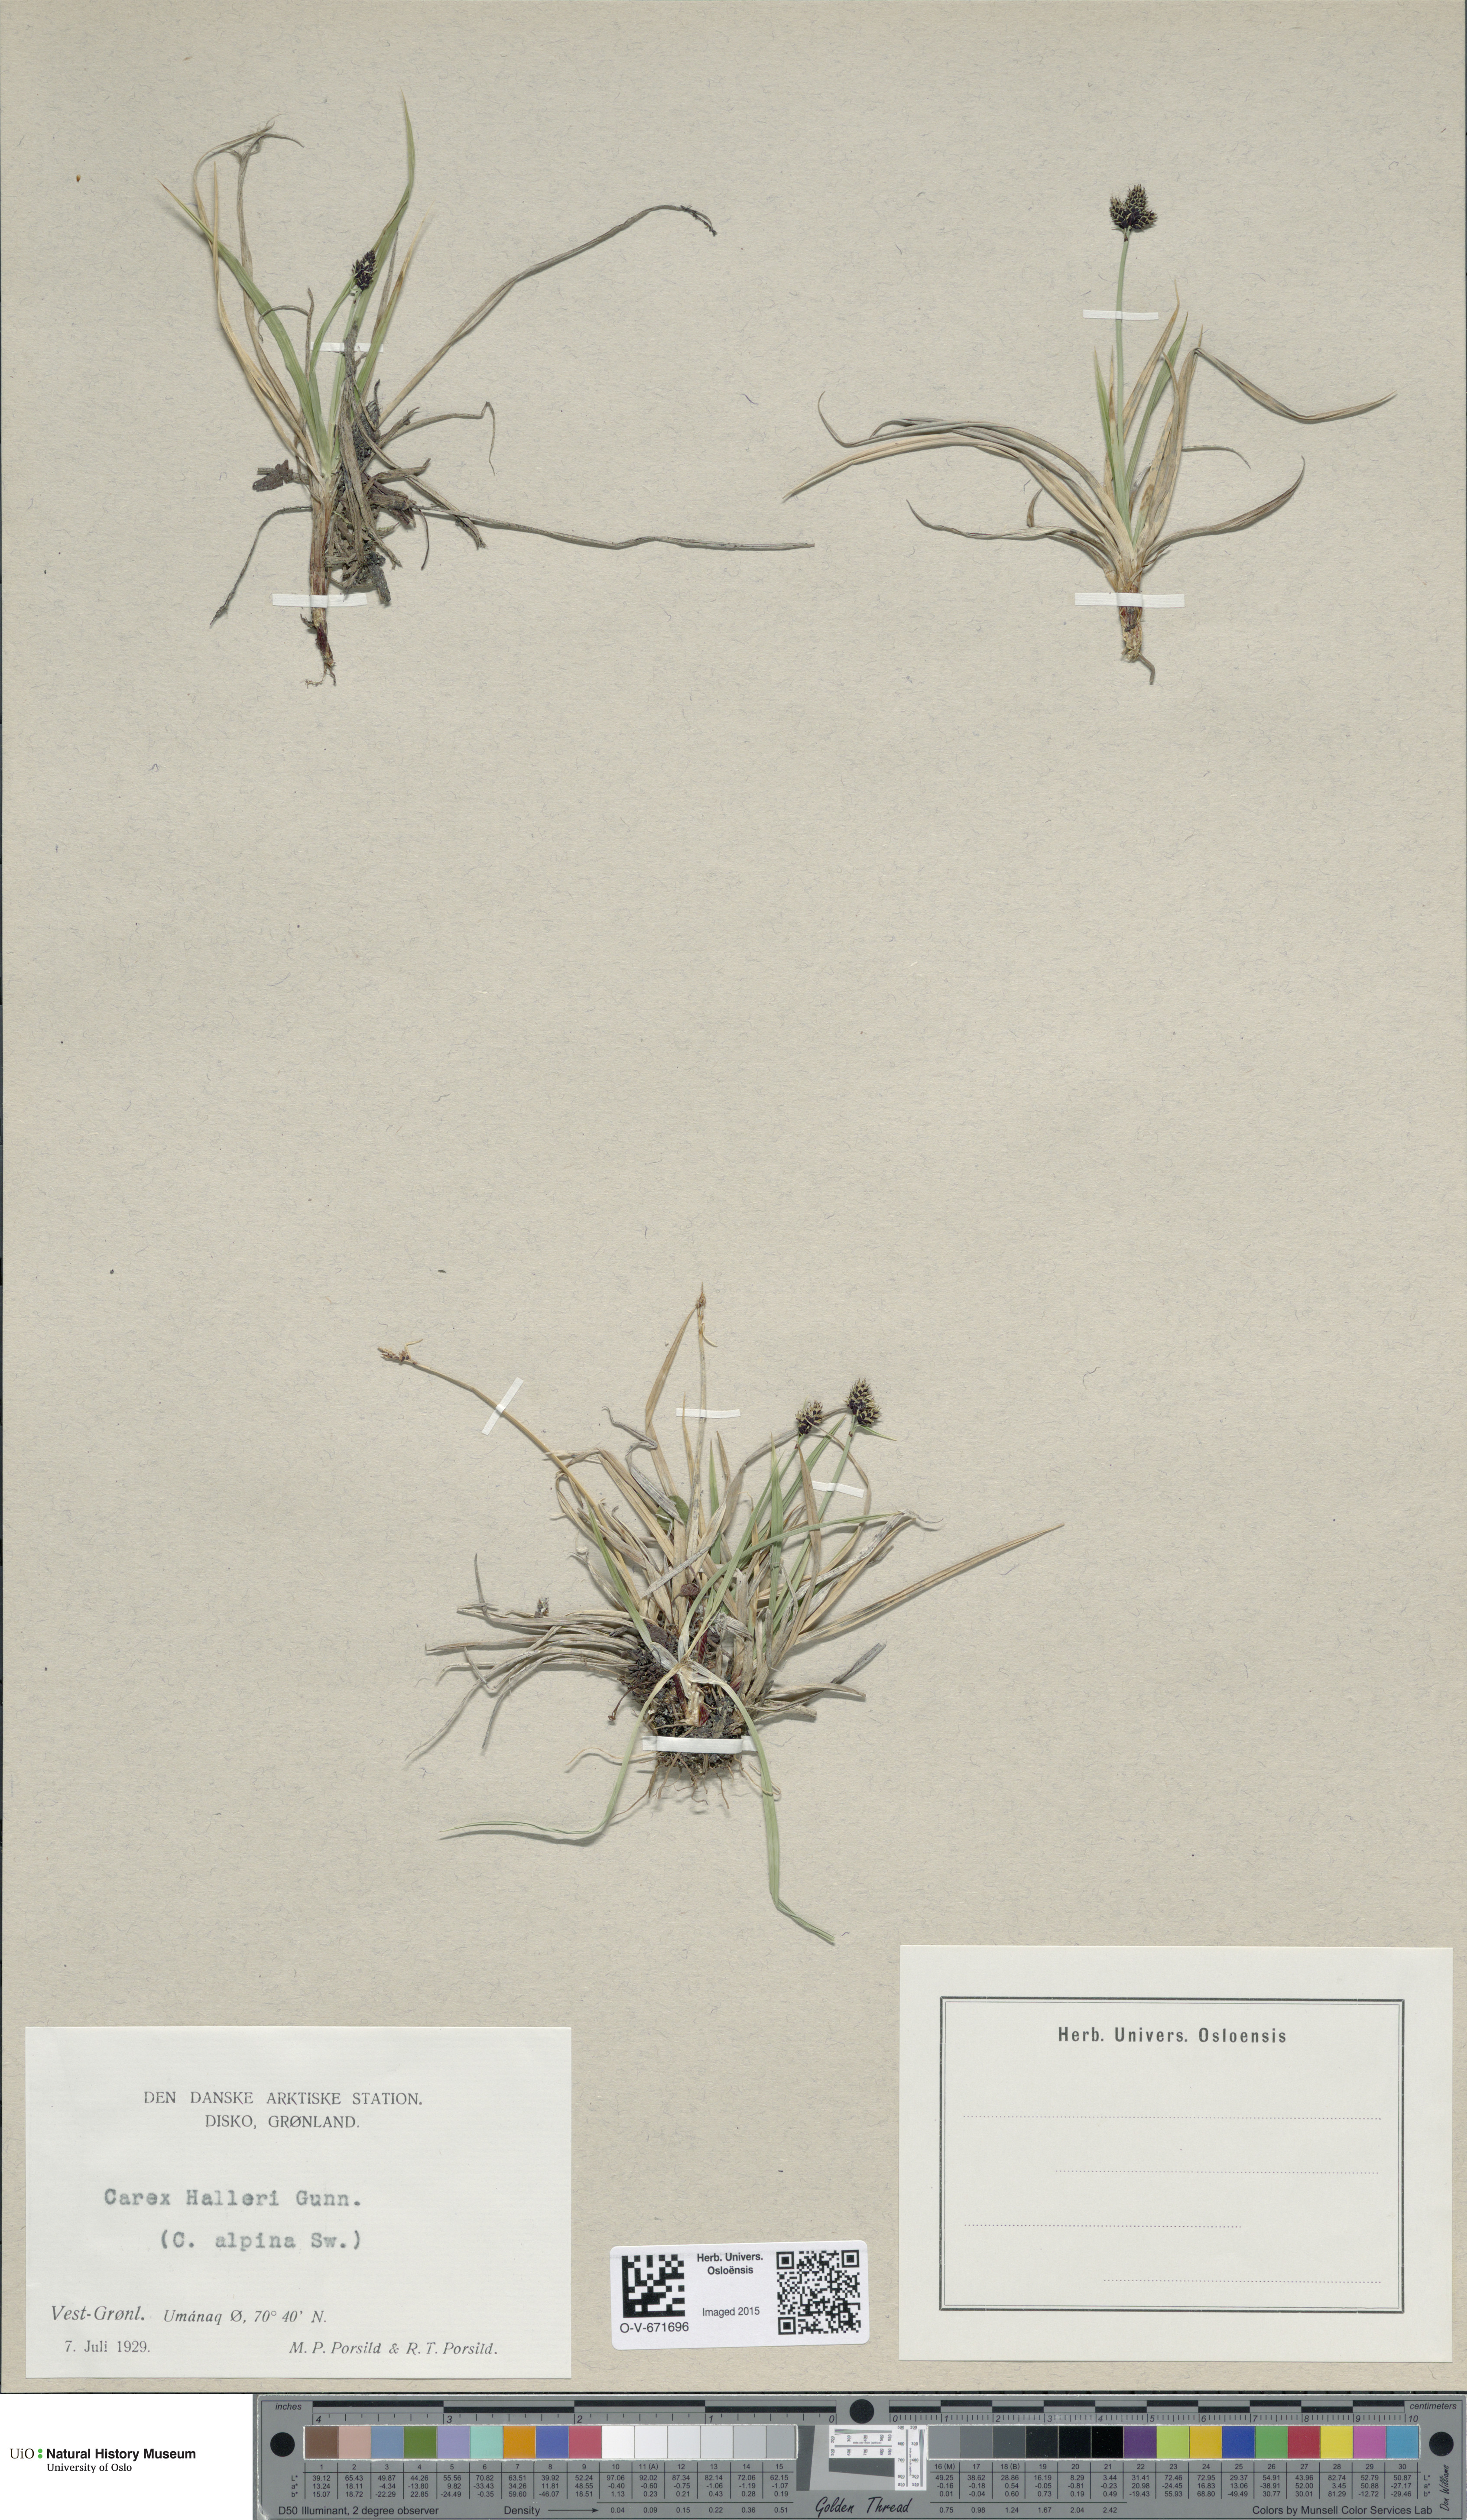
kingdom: Plantae
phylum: Tracheophyta
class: Liliopsida
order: Poales
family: Cyperaceae
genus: Carex
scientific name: Carex norvegica
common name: Close-headed alpine-sedge
